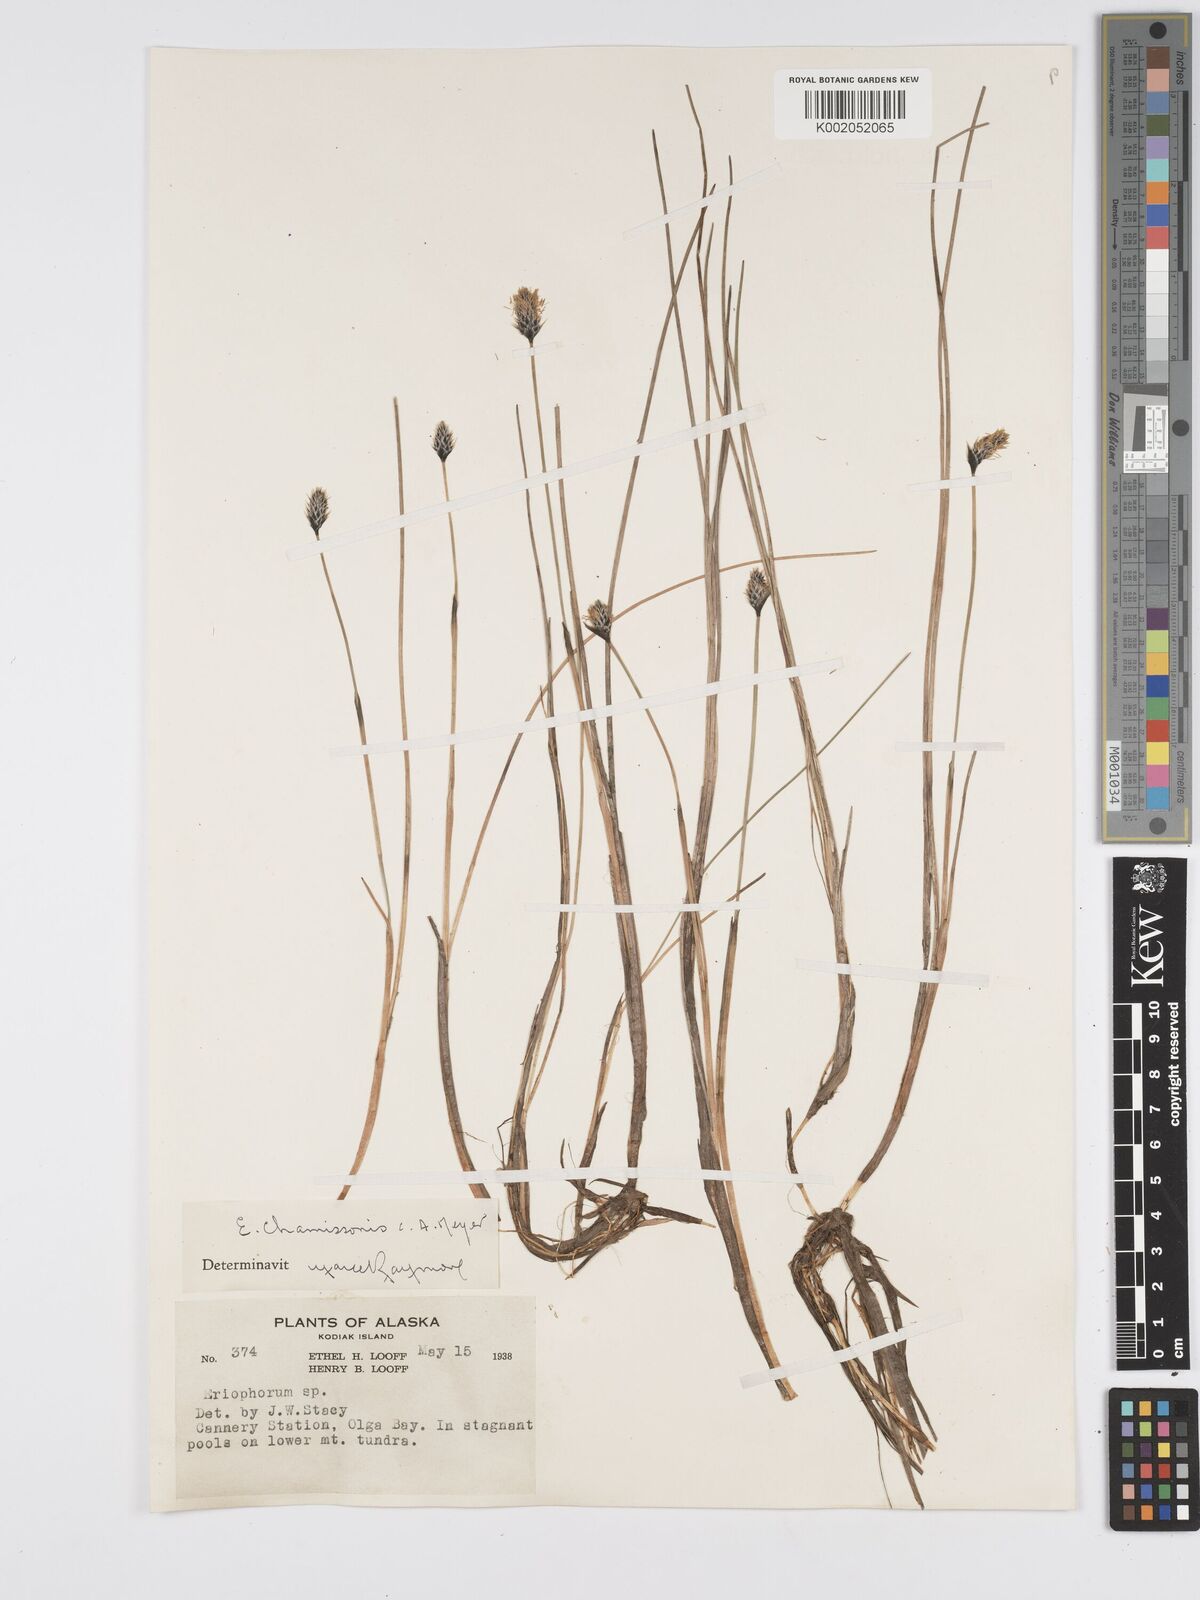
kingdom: Plantae
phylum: Tracheophyta
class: Liliopsida
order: Poales
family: Cyperaceae
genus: Eriophorum
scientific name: Eriophorum
